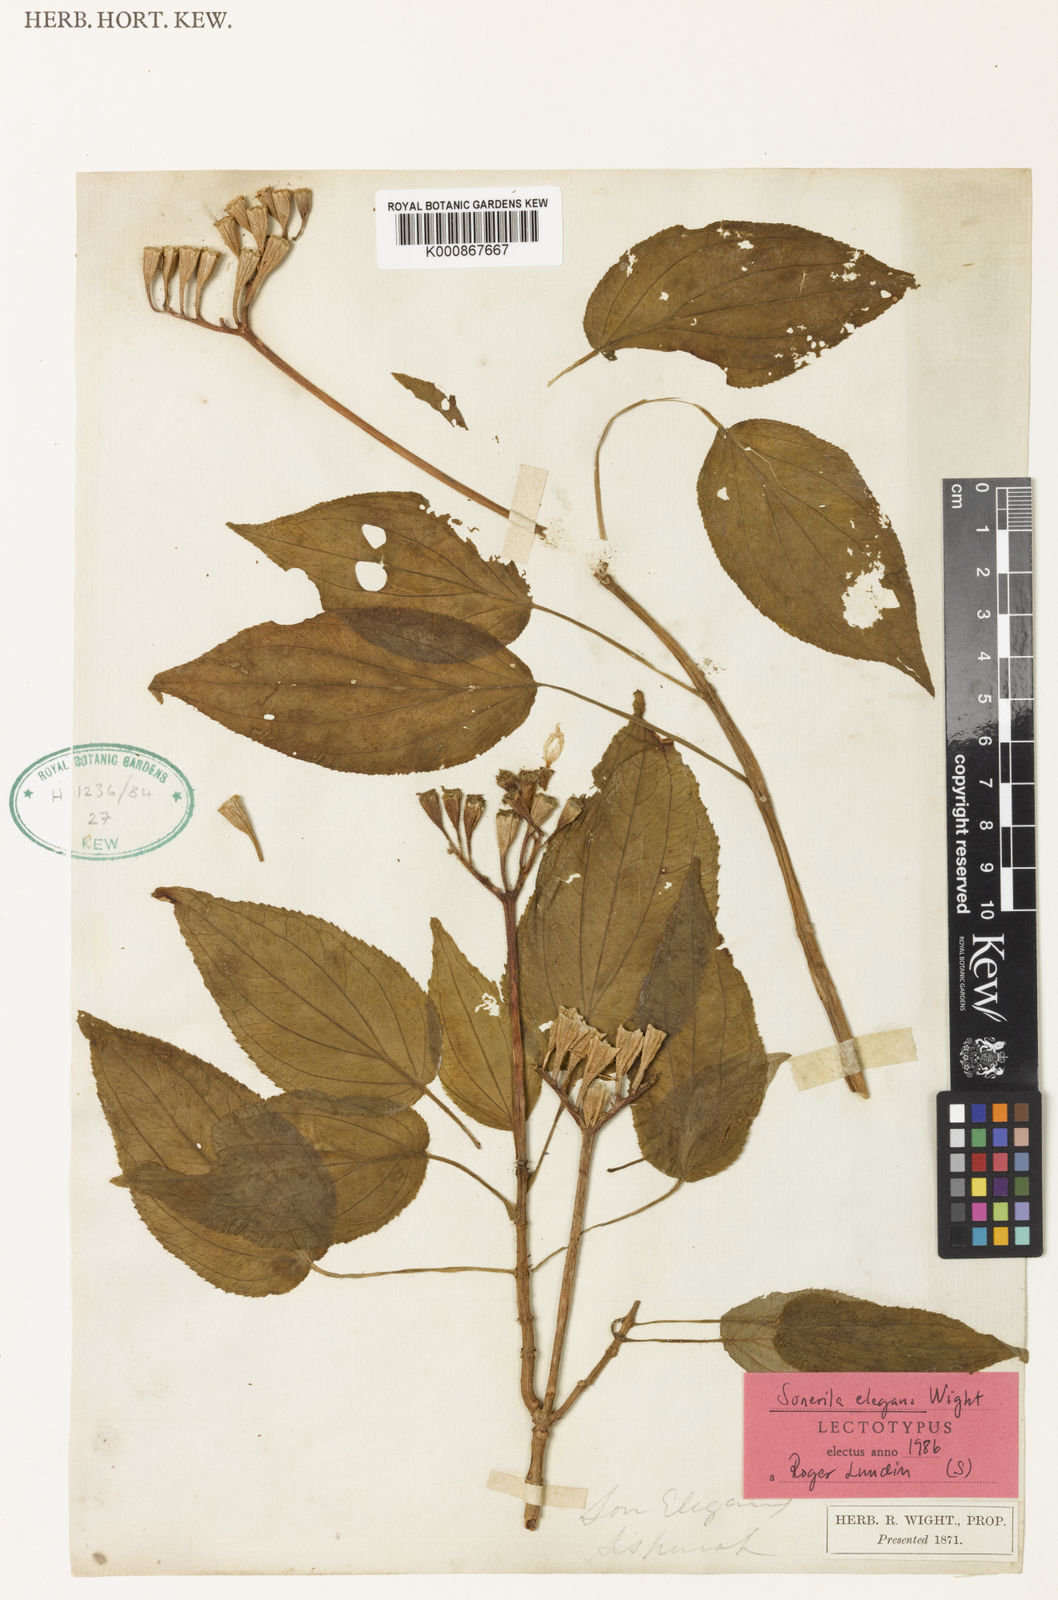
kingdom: Plantae
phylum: Tracheophyta
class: Magnoliopsida
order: Myrtales
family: Melastomataceae
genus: Sonerila
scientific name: Sonerila elegans
